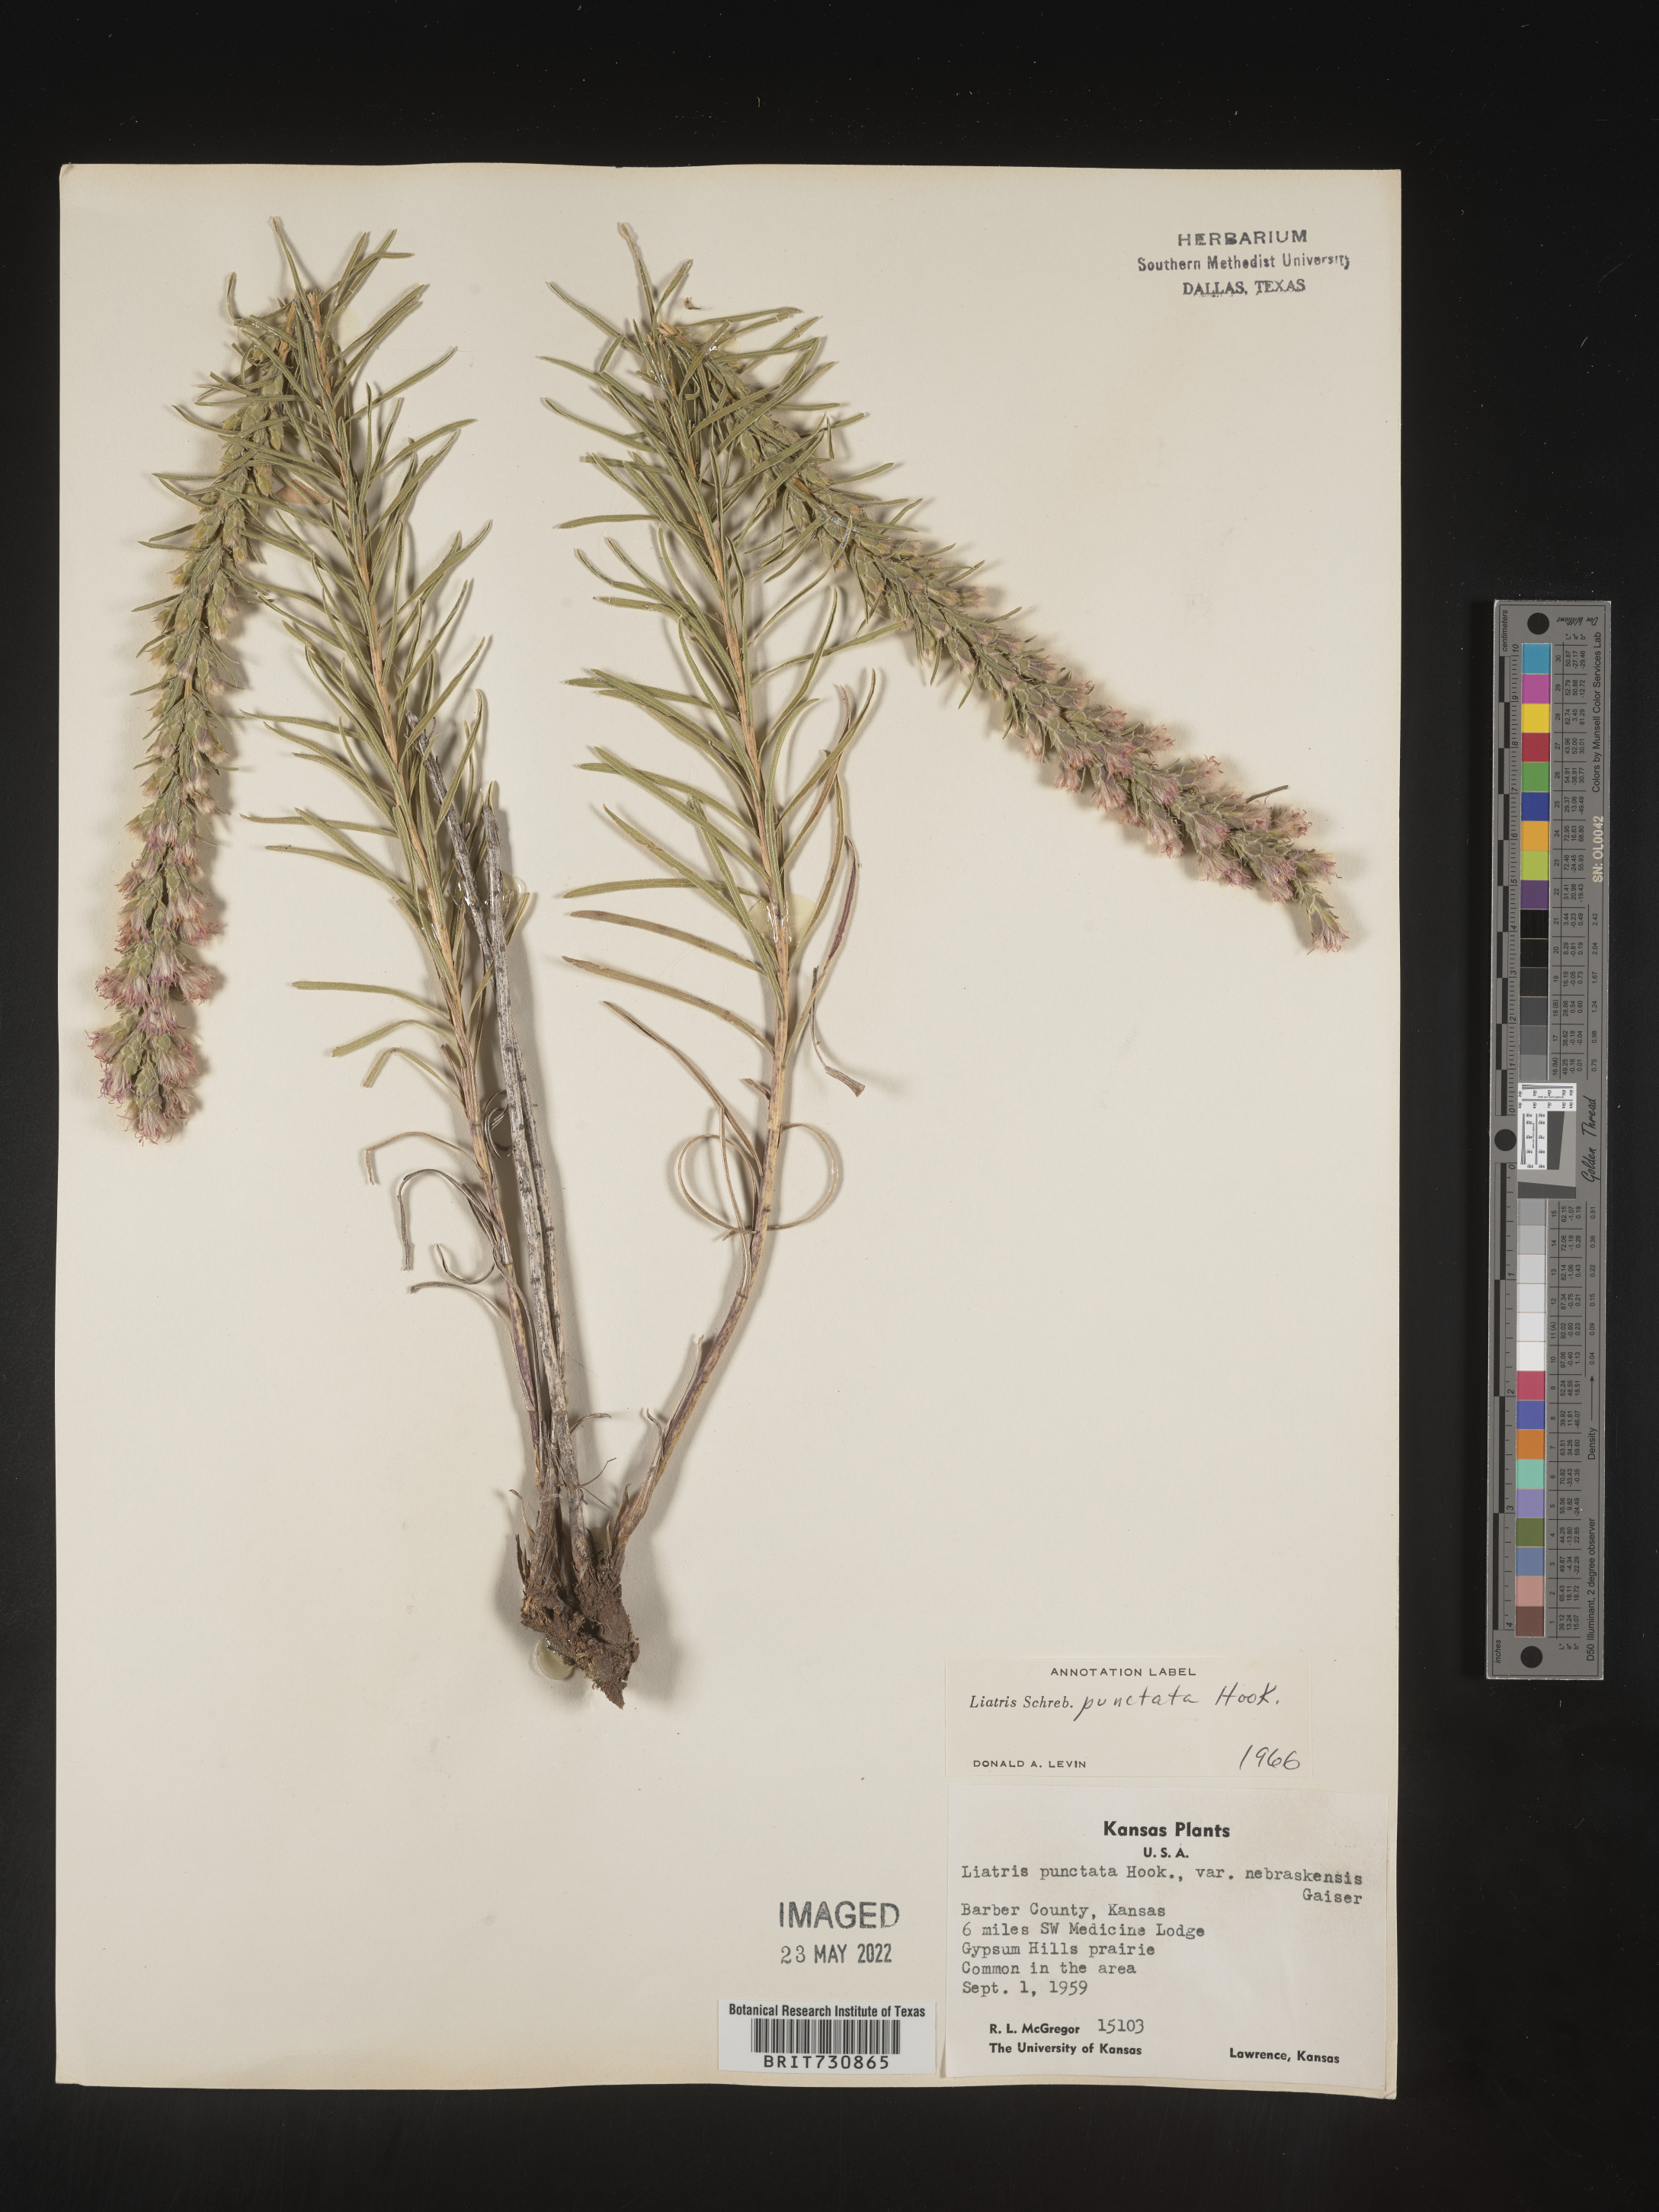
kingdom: Plantae
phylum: Tracheophyta
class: Magnoliopsida
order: Asterales
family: Asteraceae
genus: Liatris
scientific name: Liatris punctata
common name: Dotted gayfeather
